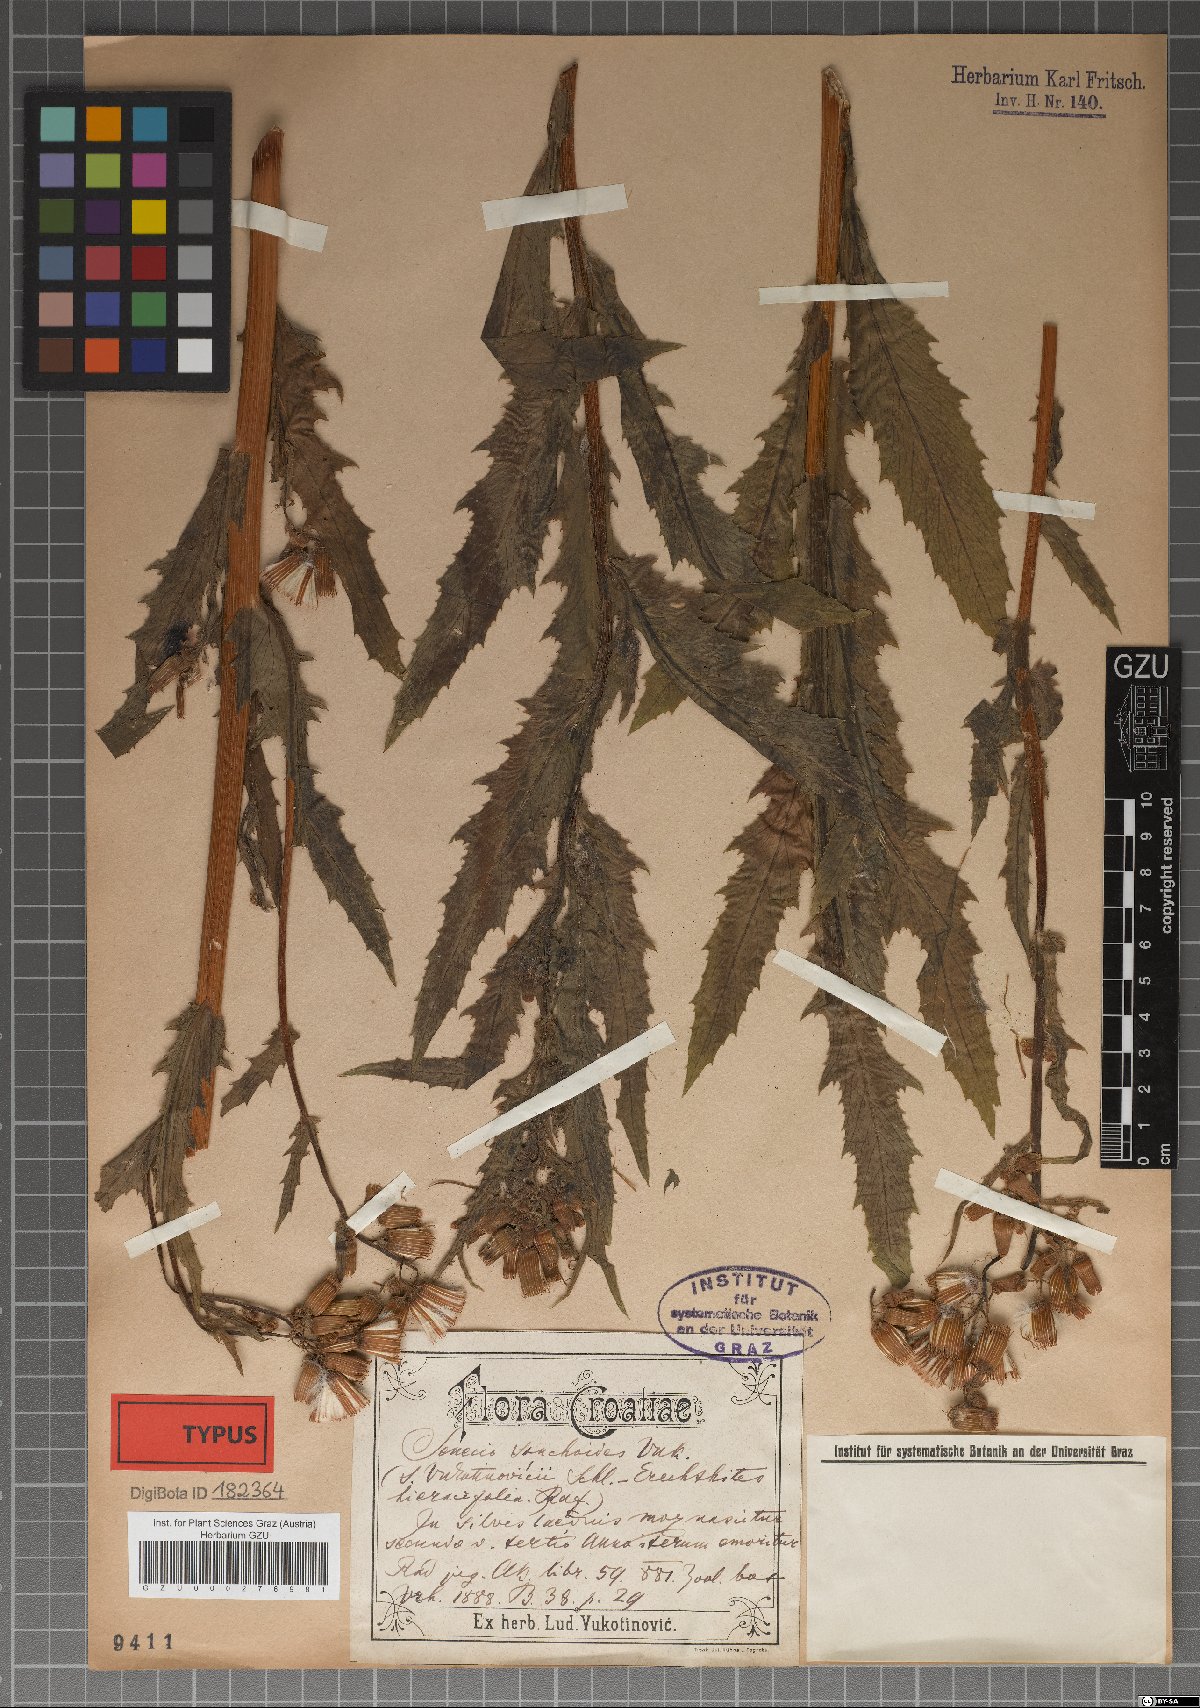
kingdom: Plantae
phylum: Tracheophyta
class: Magnoliopsida
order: Asterales
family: Asteraceae
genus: Senecio
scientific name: Senecio
